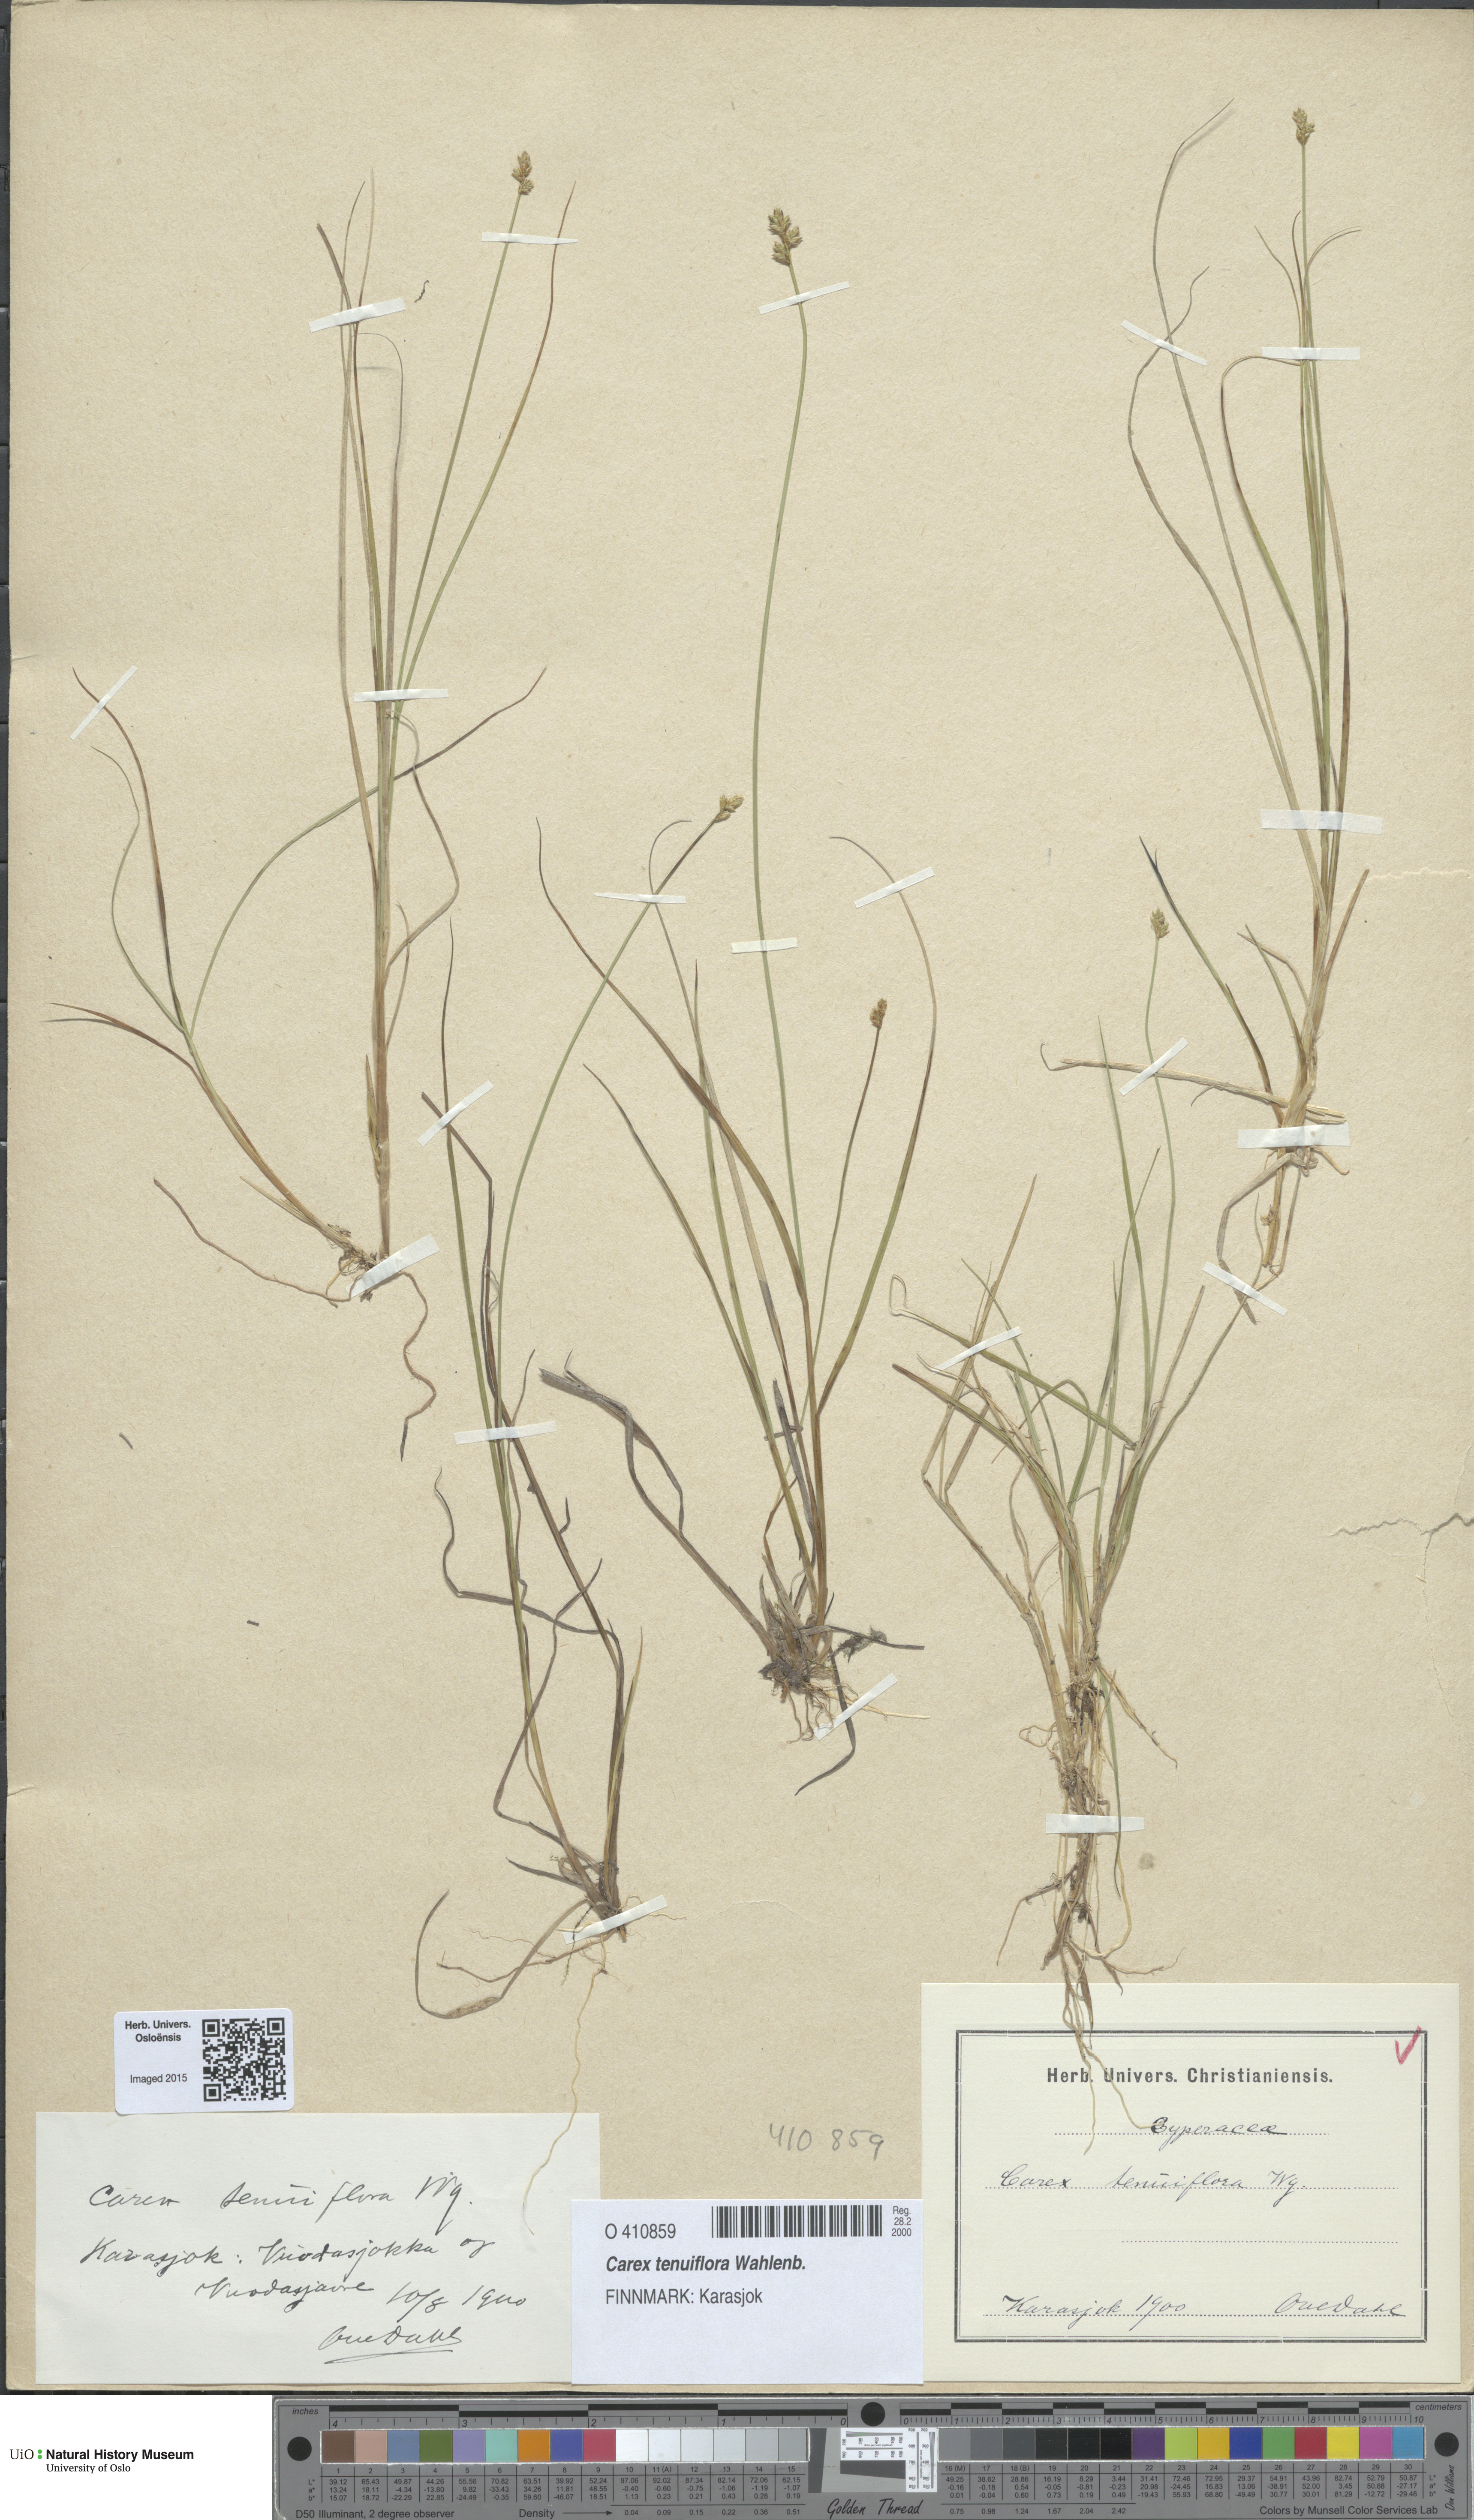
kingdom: Plantae
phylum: Tracheophyta
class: Liliopsida
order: Poales
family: Cyperaceae
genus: Carex
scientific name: Carex tenuiflora
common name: Sparse-flowered sedge
